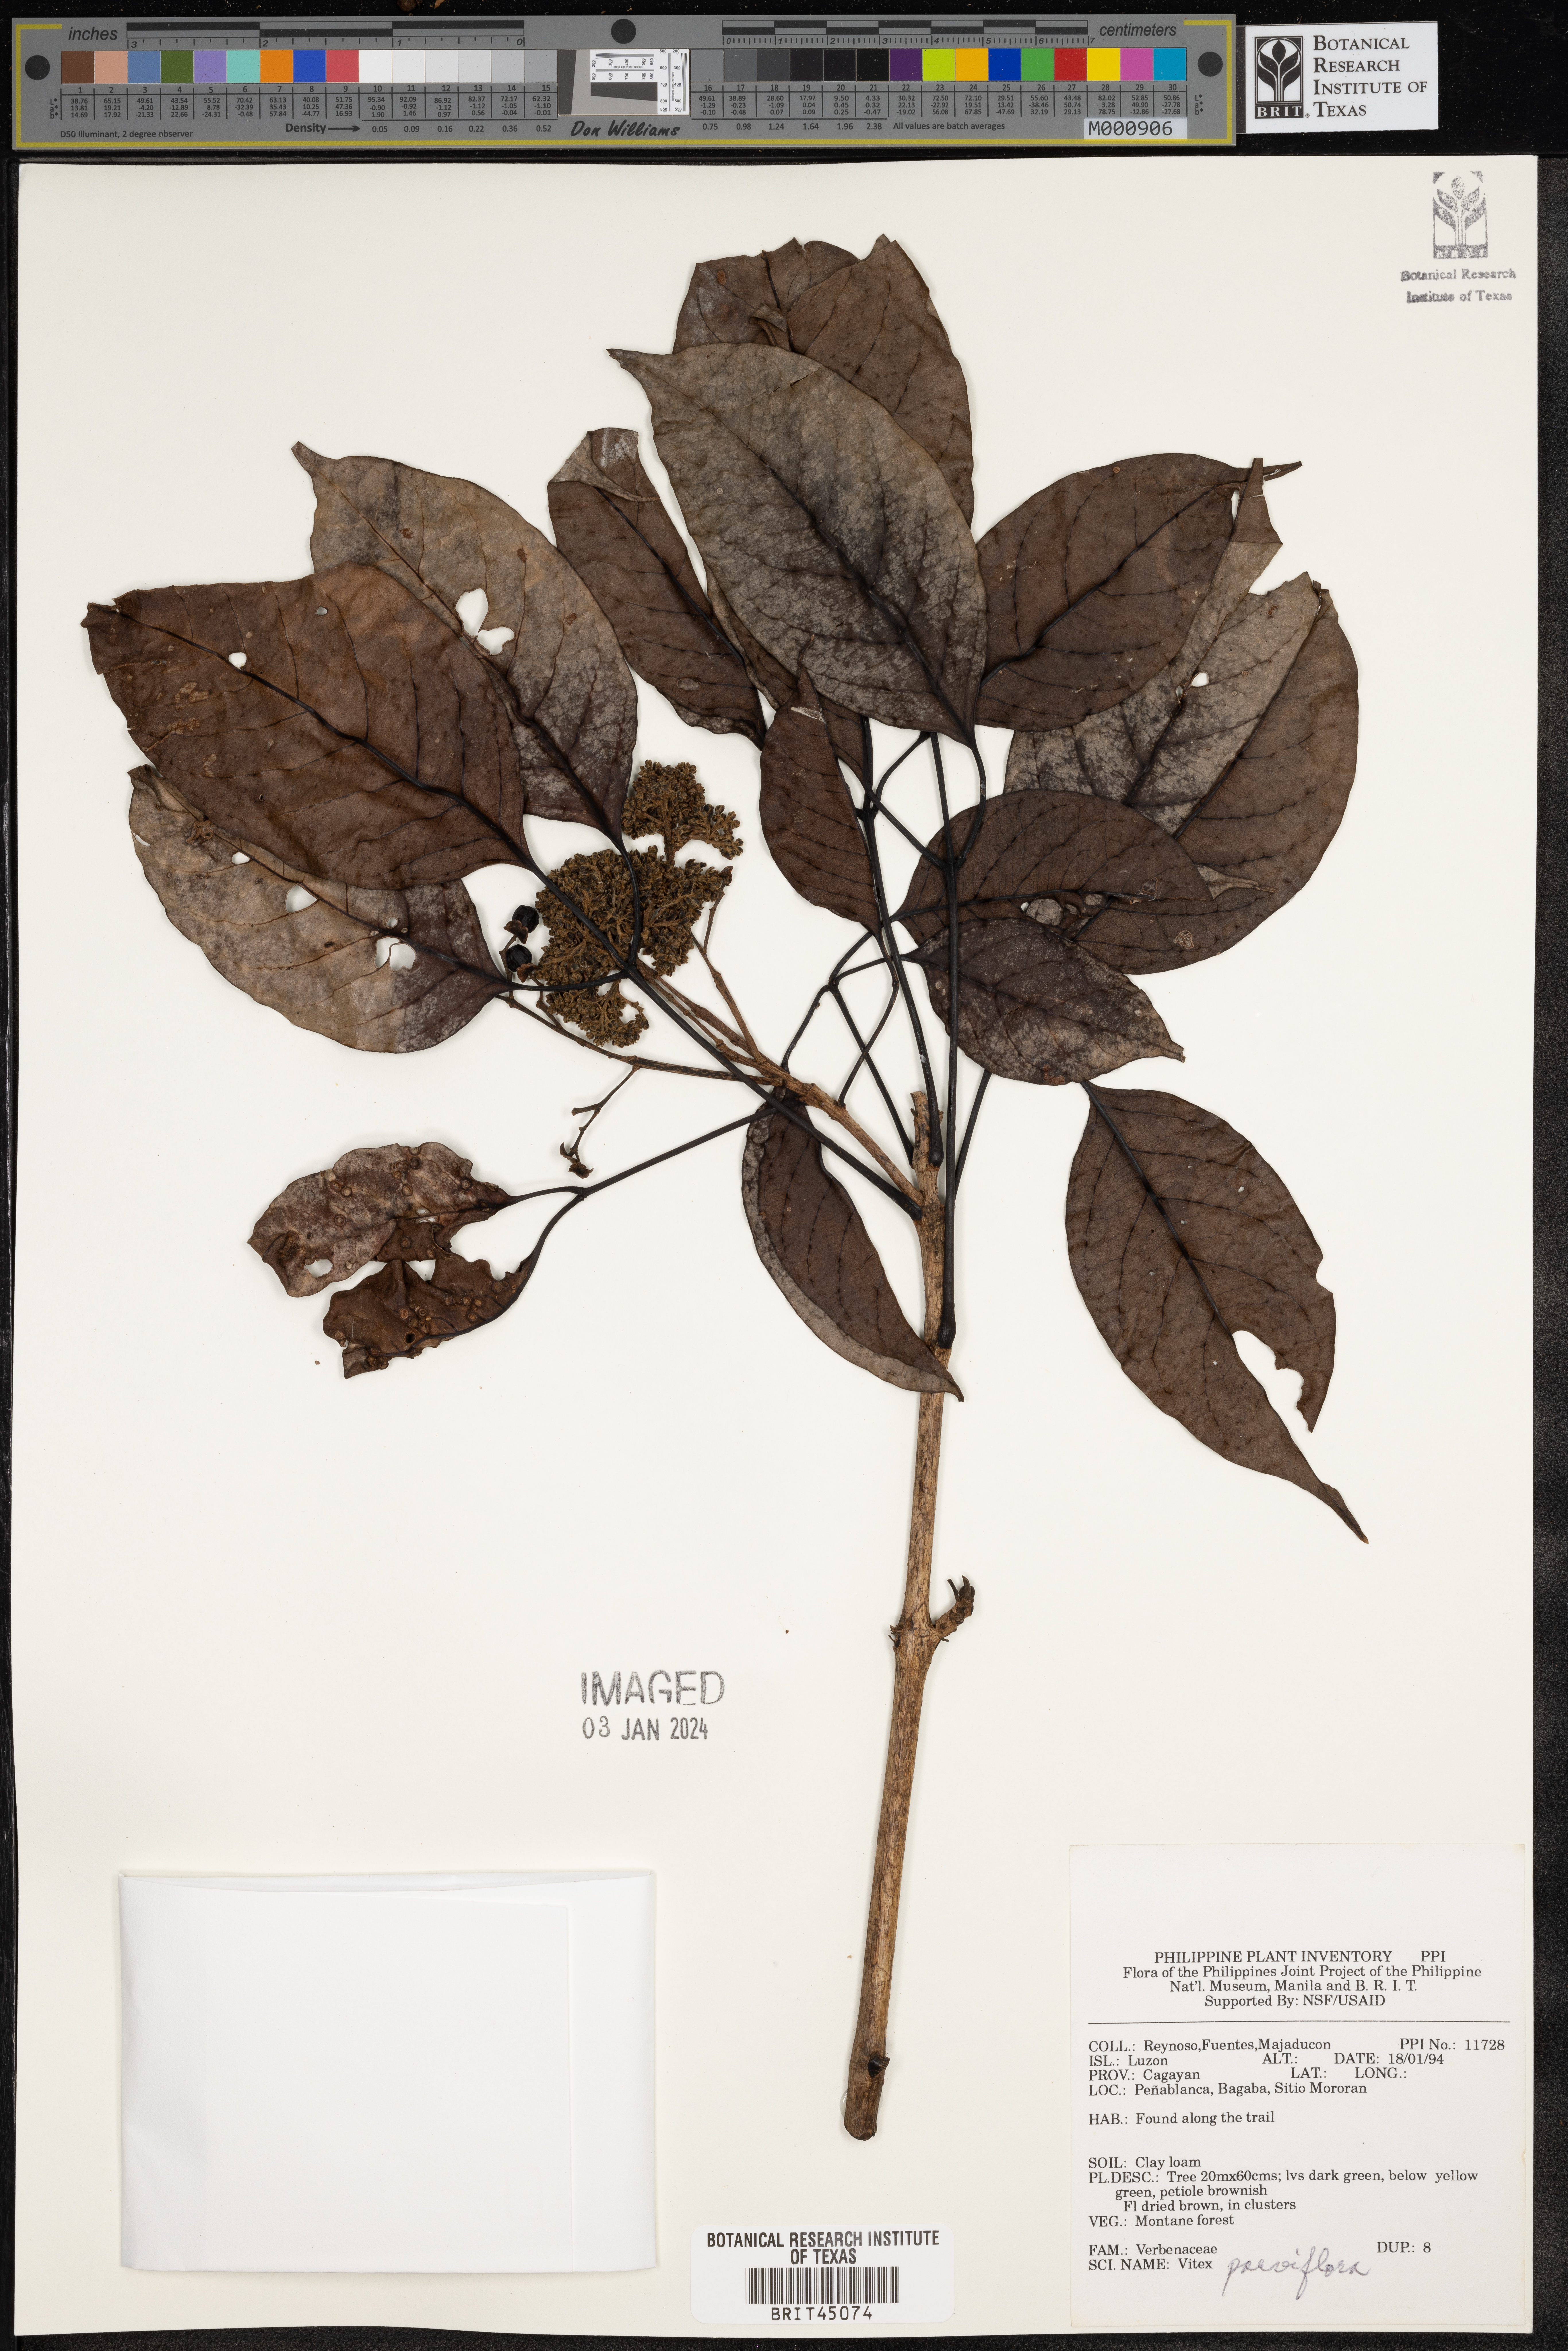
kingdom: Plantae
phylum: Tracheophyta
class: Magnoliopsida
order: Lamiales
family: Lamiaceae
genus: Vitex
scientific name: Vitex parviflora
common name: Smallflower chastetree
